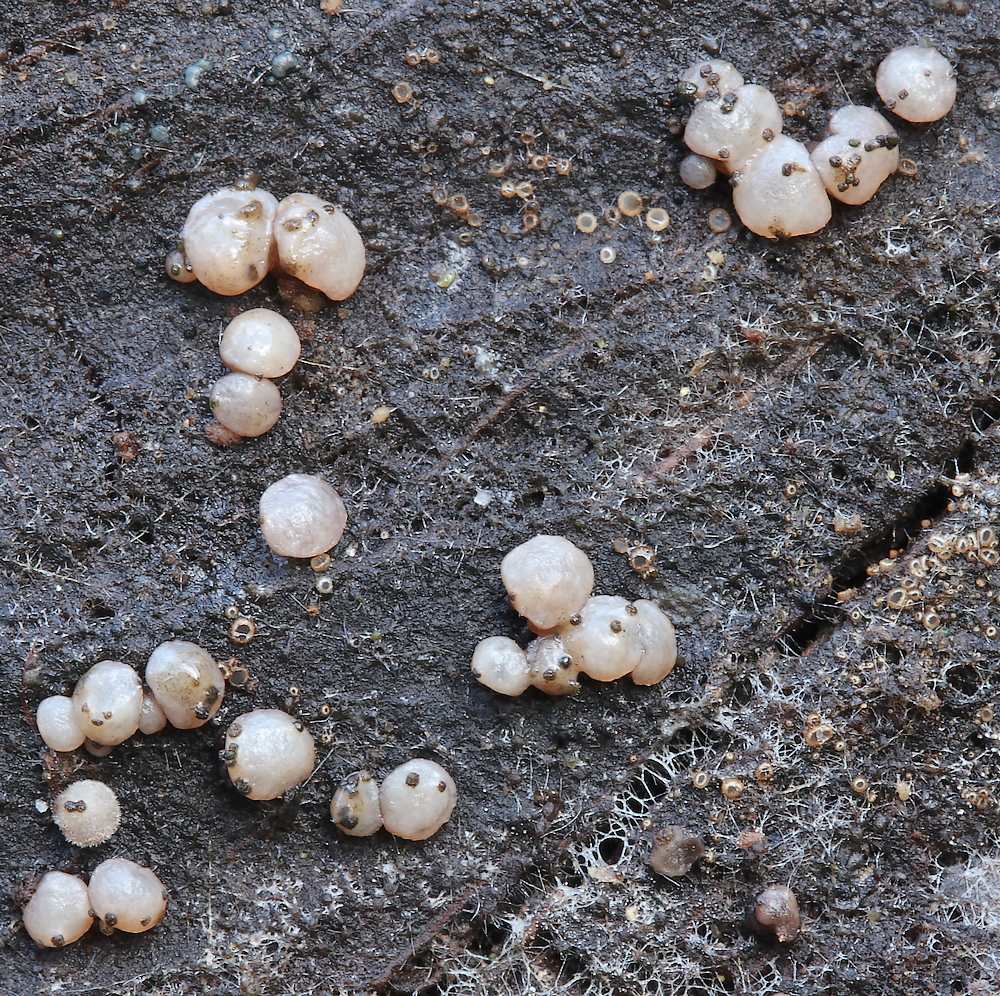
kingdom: Fungi
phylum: Ascomycota
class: Leotiomycetes
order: Helotiales
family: Gelatinodiscaceae
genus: Ascocoryne
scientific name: Ascocoryne albida
